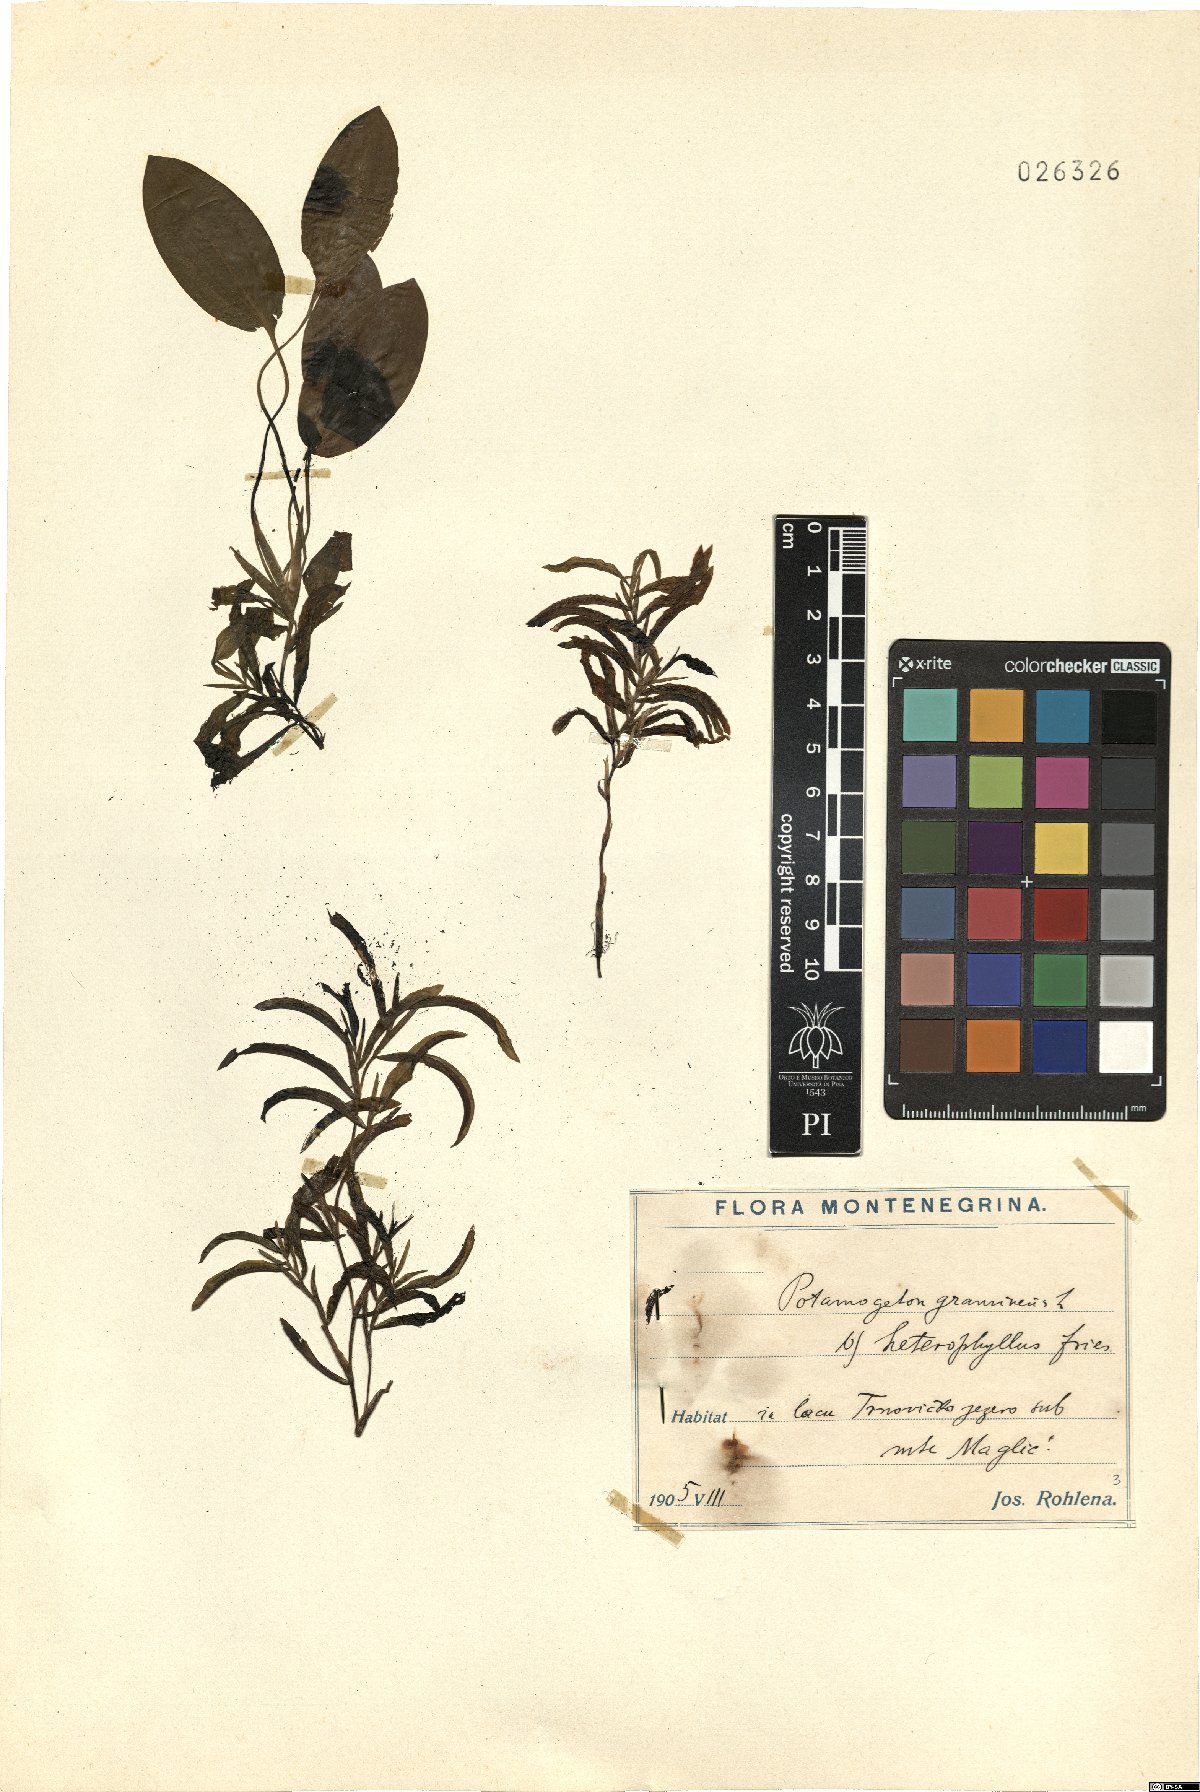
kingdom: Plantae
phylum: Tracheophyta
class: Liliopsida
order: Alismatales
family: Potamogetonaceae
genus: Potamogeton
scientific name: Potamogeton gramineus
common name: Various-leaved pondweed
